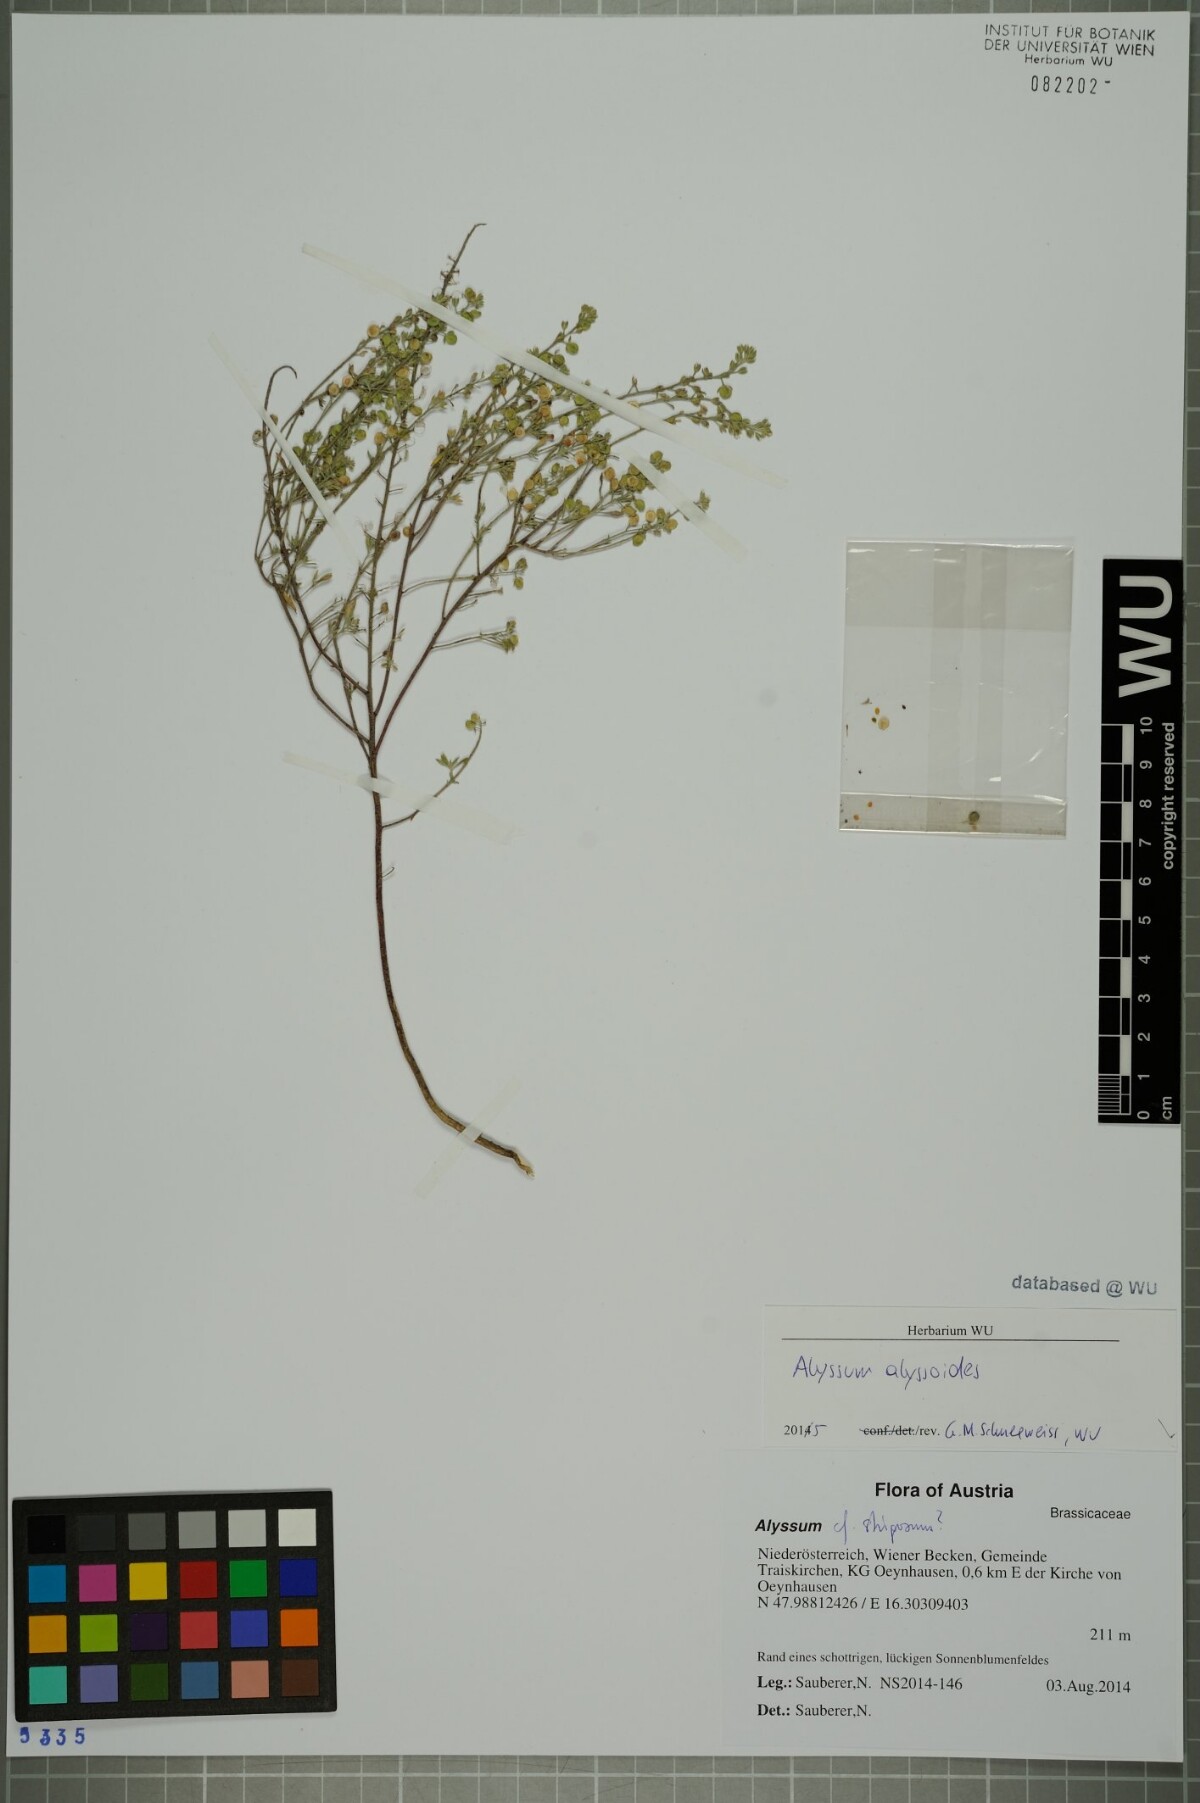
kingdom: Plantae
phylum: Tracheophyta
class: Magnoliopsida
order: Brassicales
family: Brassicaceae
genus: Alyssum
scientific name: Alyssum alyssoides
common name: Small alison
